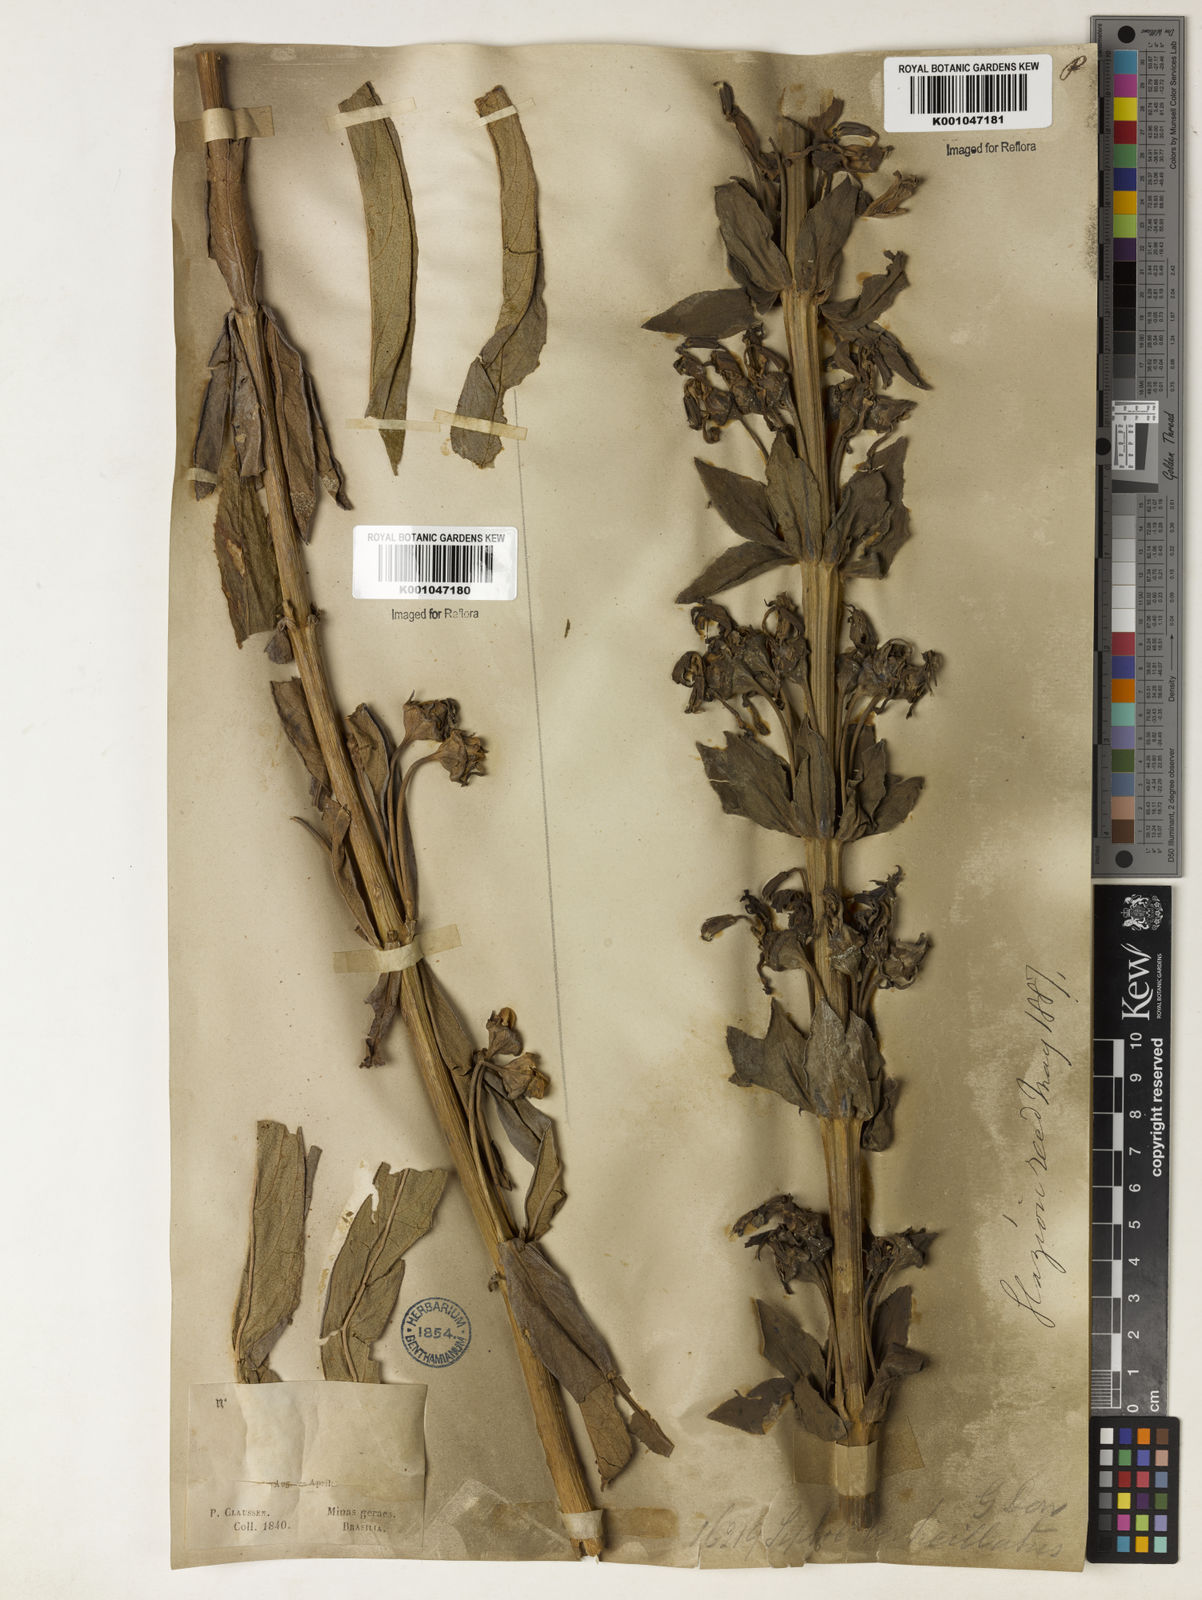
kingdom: Plantae
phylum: Tracheophyta
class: Magnoliopsida
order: Asterales
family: Campanulaceae
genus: Siphocampylus
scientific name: Siphocampylus verticillatus
